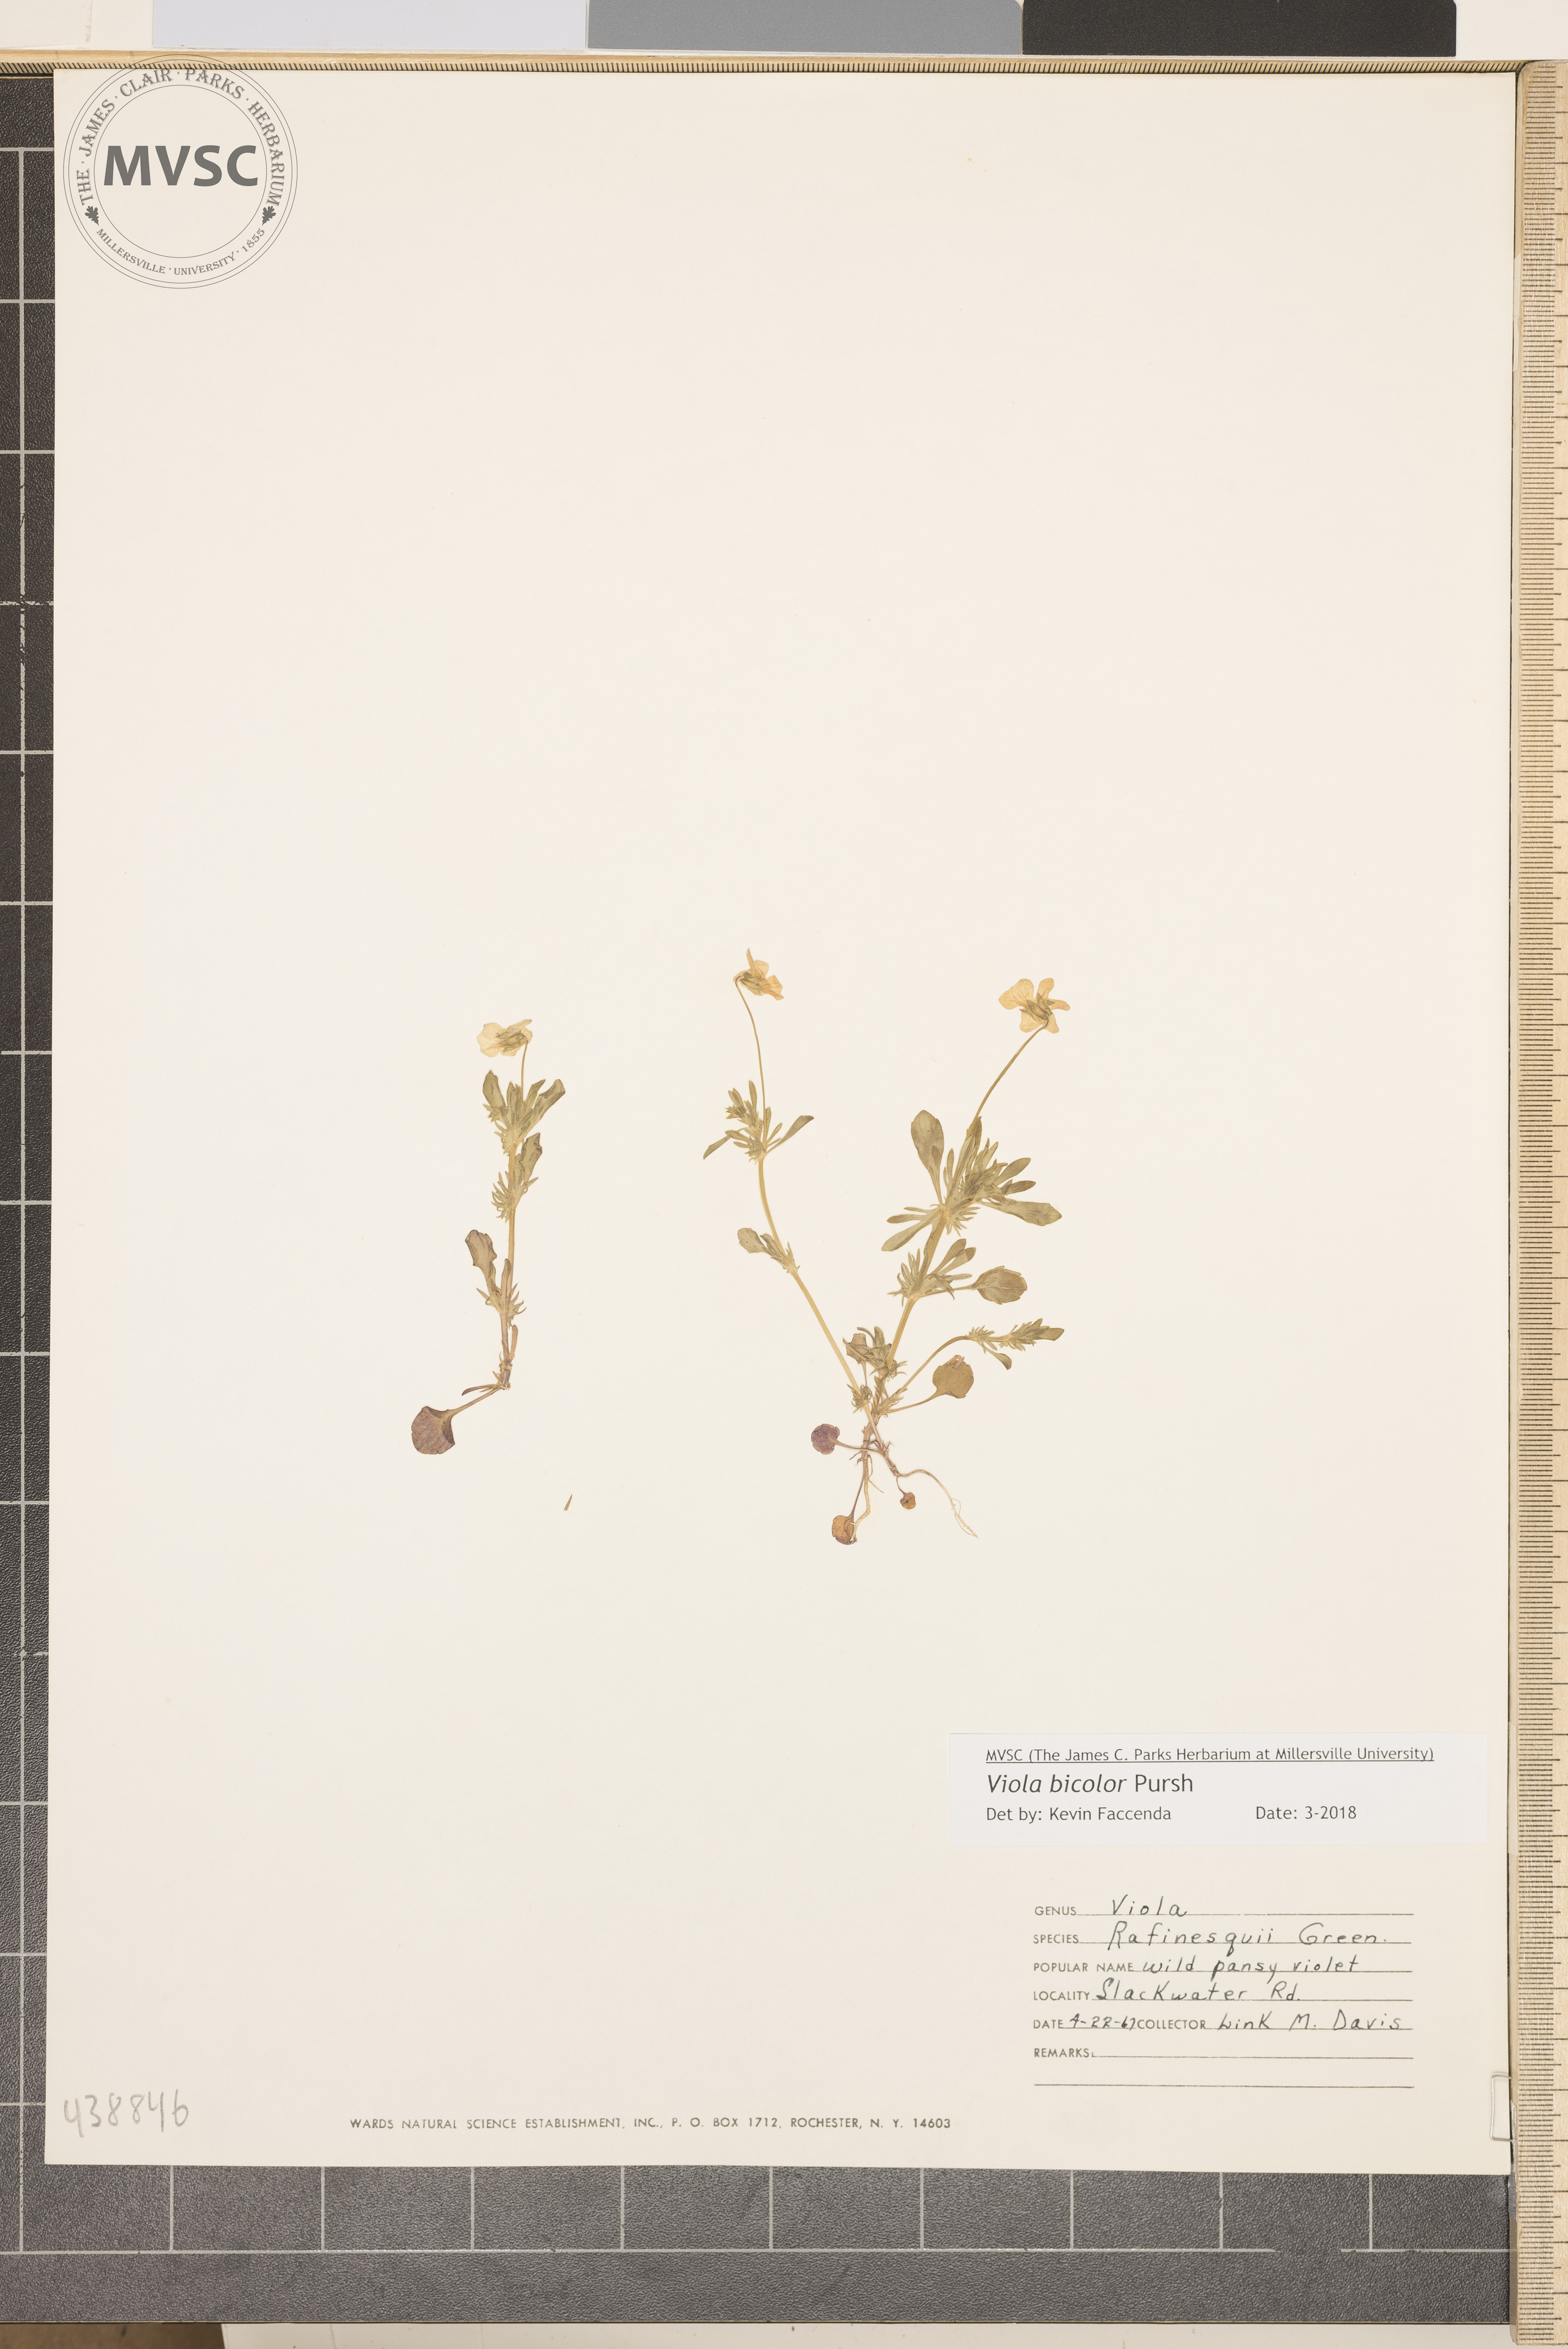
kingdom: Plantae
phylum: Tracheophyta
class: Magnoliopsida
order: Malpighiales
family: Violaceae
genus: Viola
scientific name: Viola rafinesquei
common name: American field pansy
